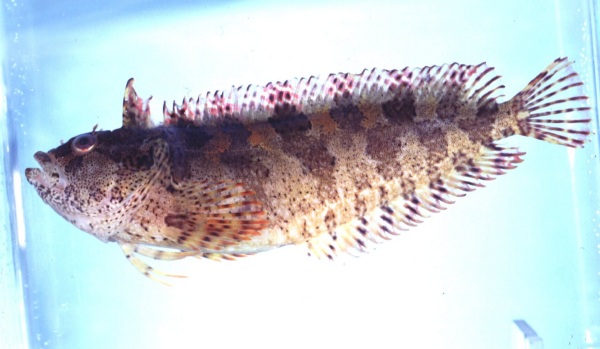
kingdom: Animalia
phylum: Chordata
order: Perciformes
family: Clinidae
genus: Clinus
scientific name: Clinus arborescens
